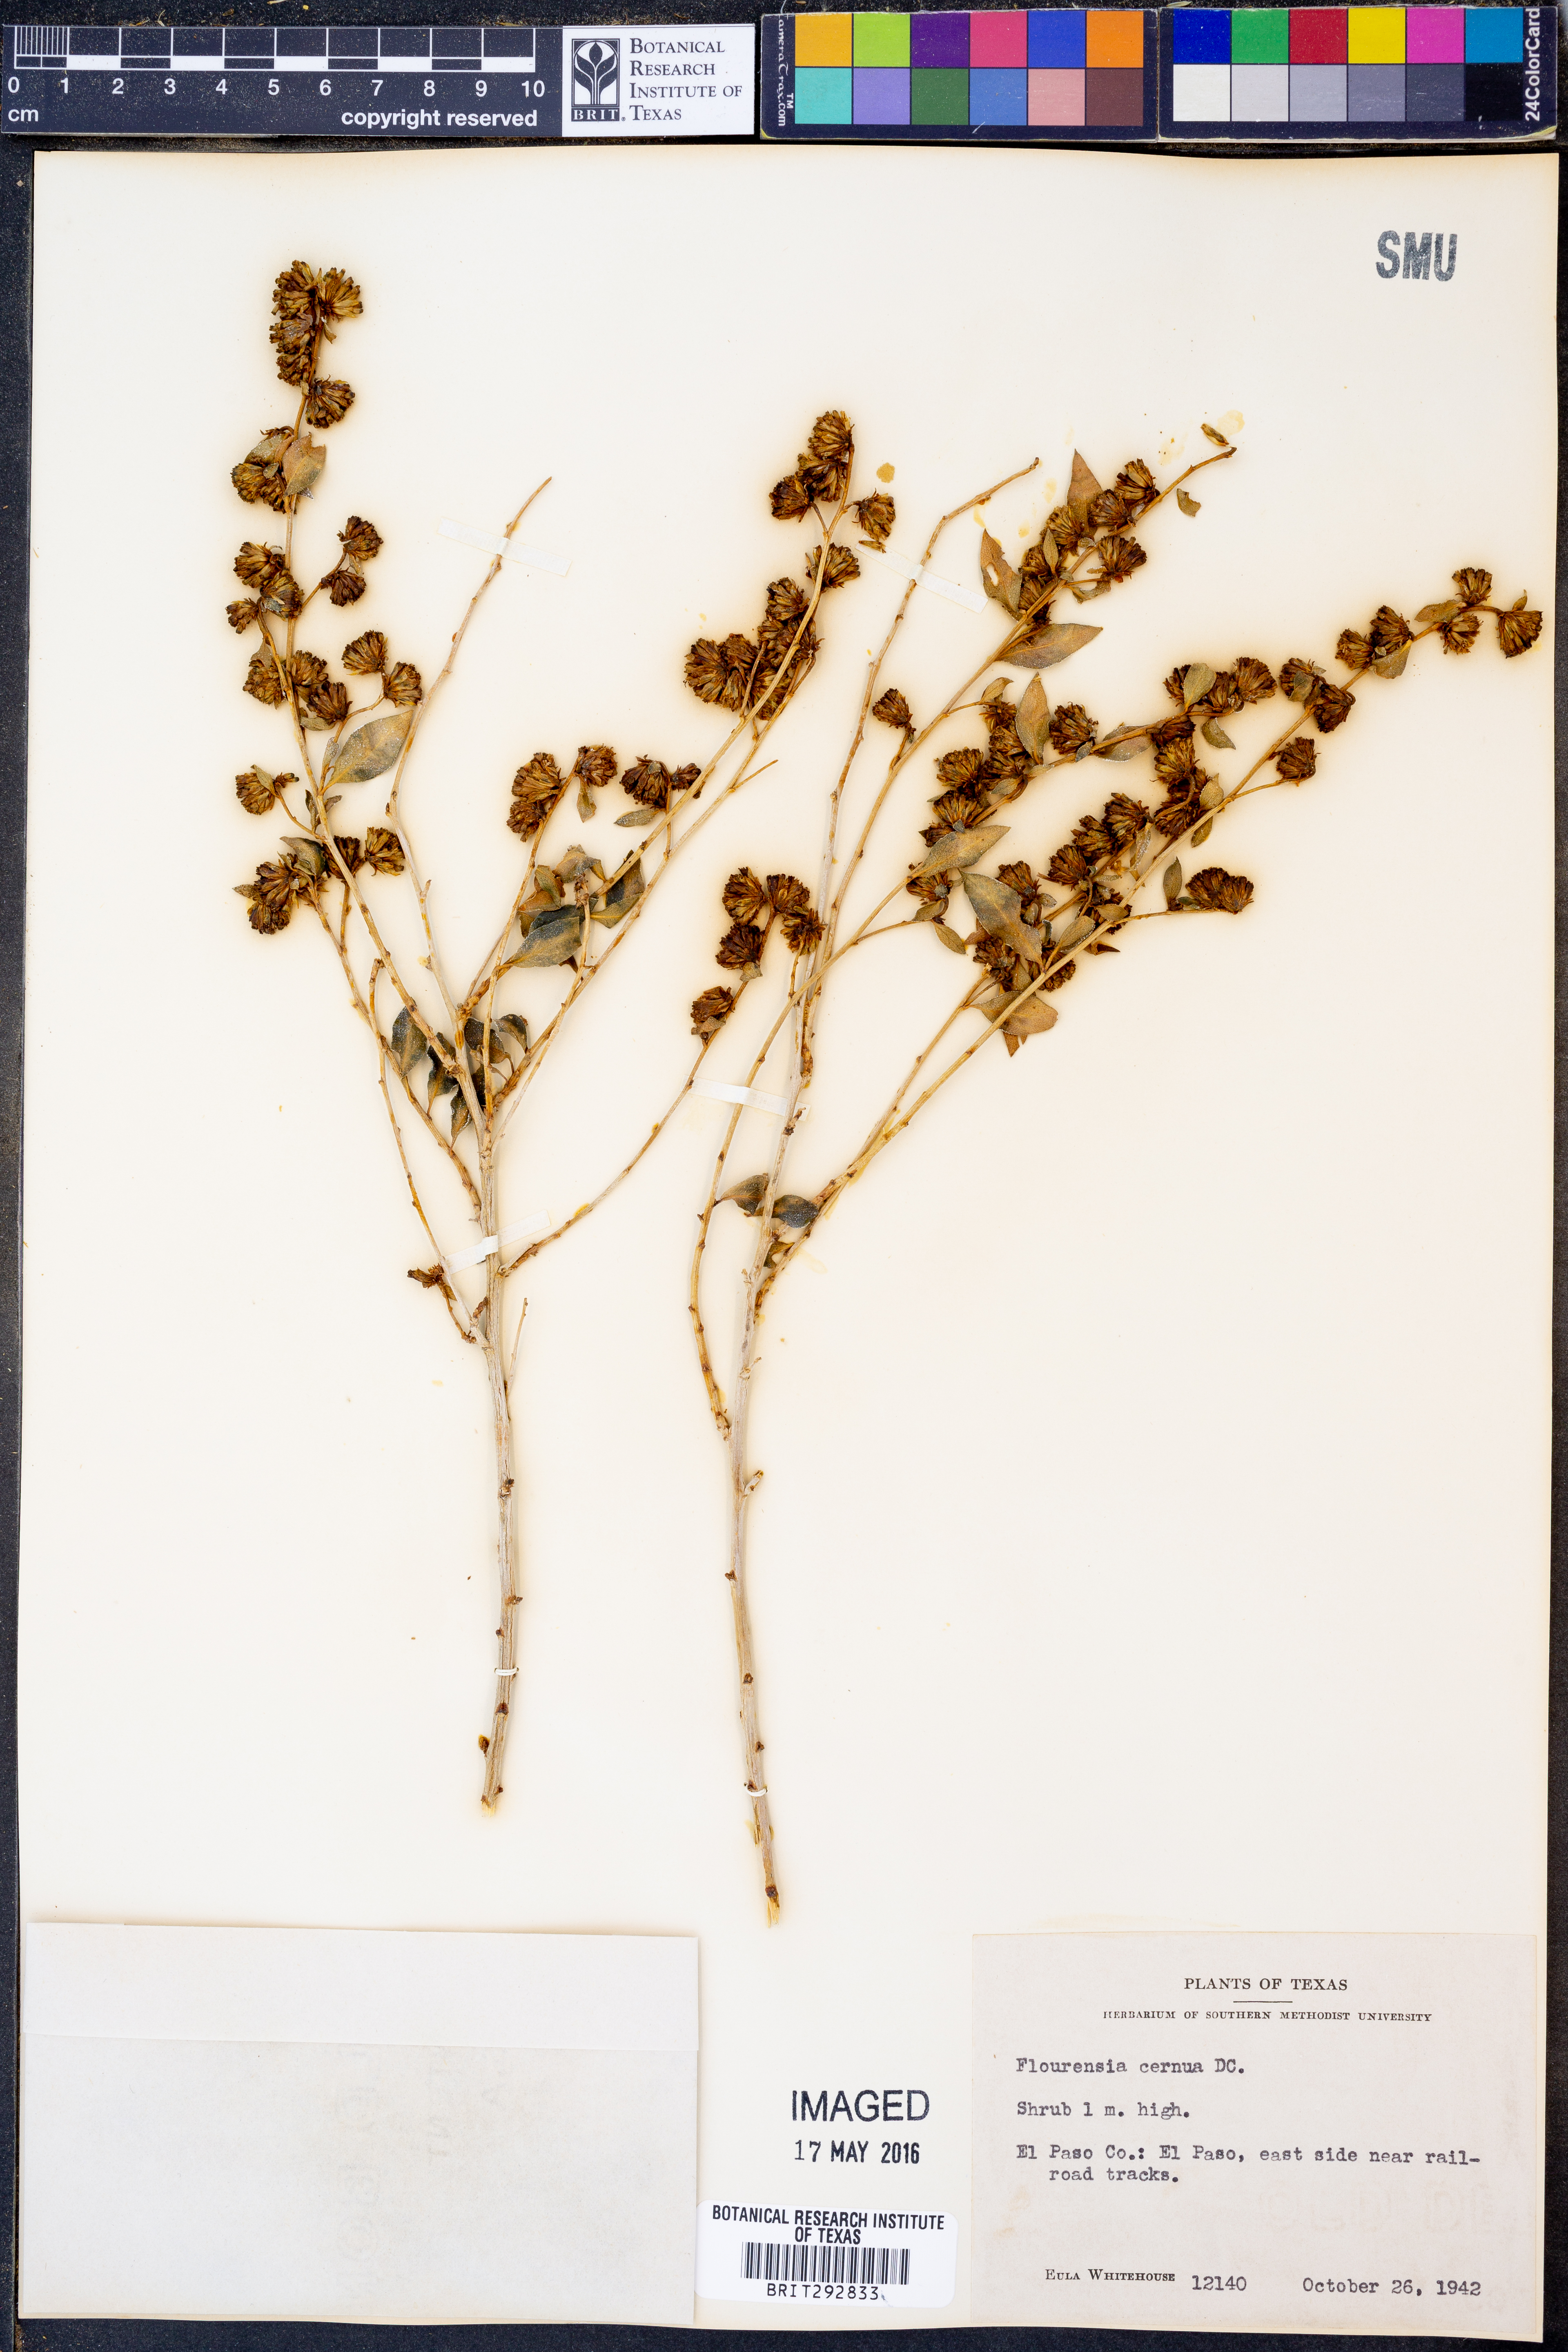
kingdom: Plantae
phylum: Tracheophyta
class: Magnoliopsida
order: Asterales
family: Asteraceae
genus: Flourensia
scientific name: Flourensia cernua
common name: Varnishbush
